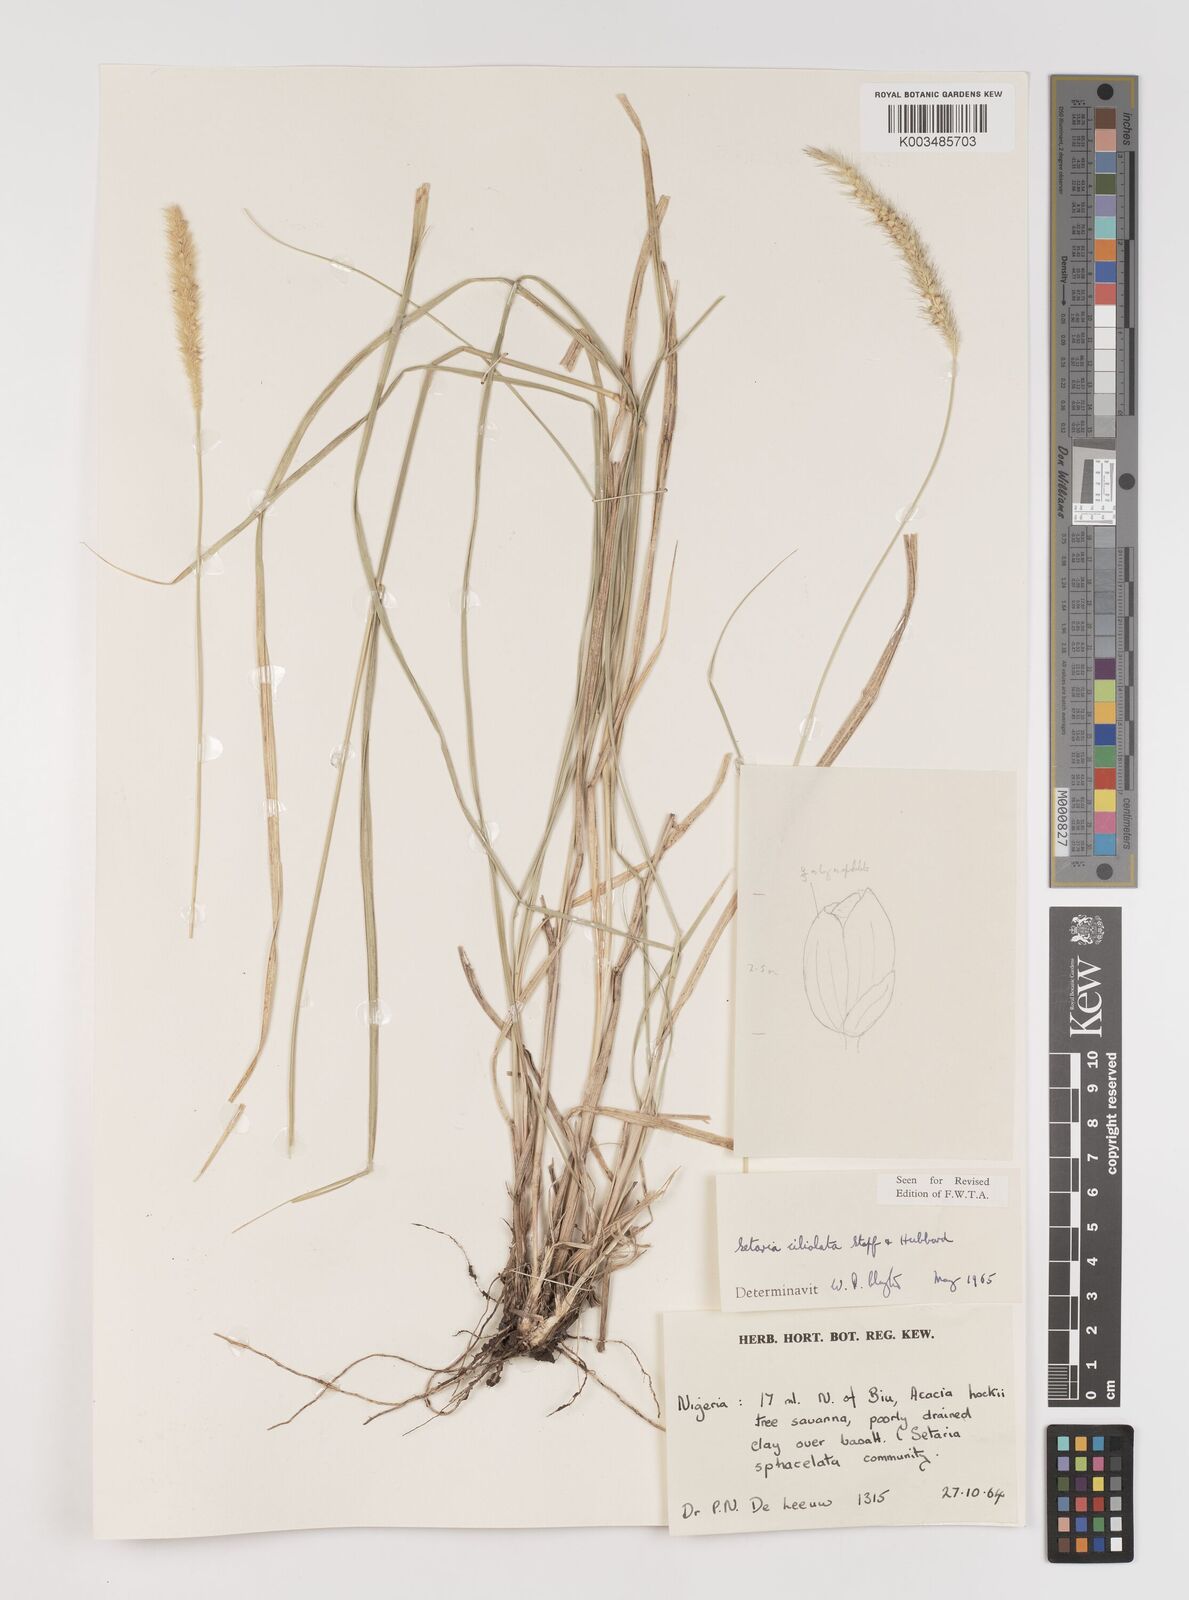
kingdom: Plantae
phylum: Tracheophyta
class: Liliopsida
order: Poales
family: Poaceae
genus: Setaria
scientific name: Setaria incrassata
